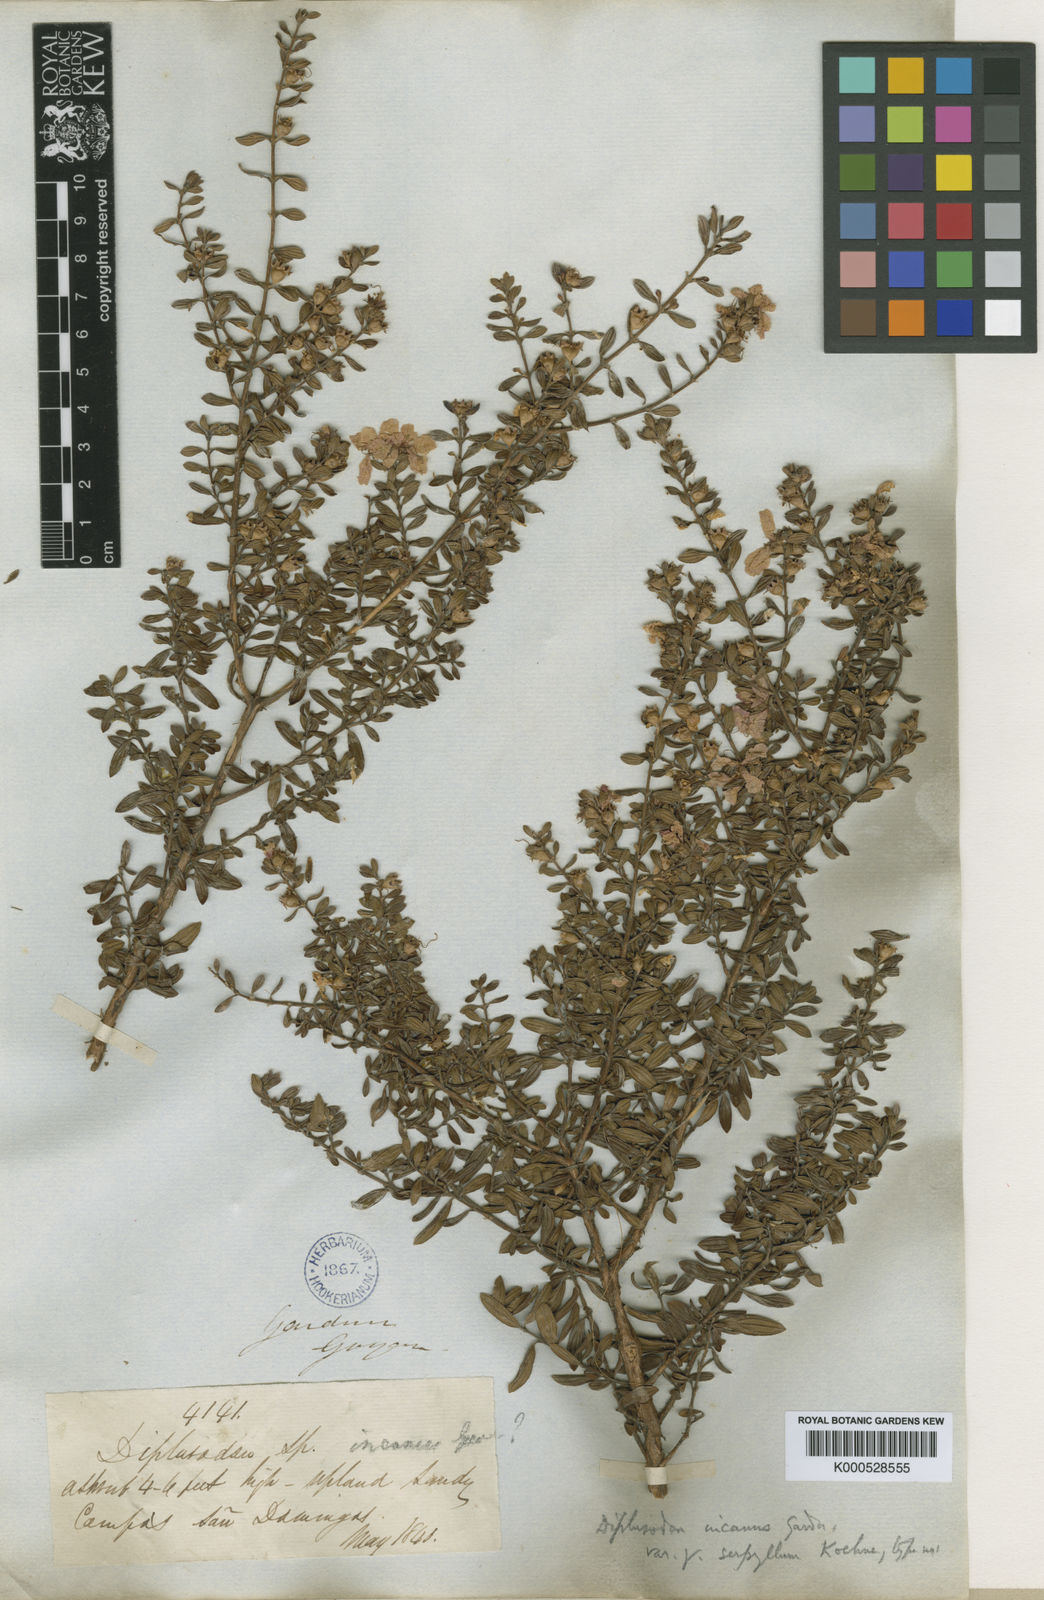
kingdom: Plantae
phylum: Tracheophyta
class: Magnoliopsida
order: Myrtales
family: Lythraceae
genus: Diplusodon
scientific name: Diplusodon incanus
